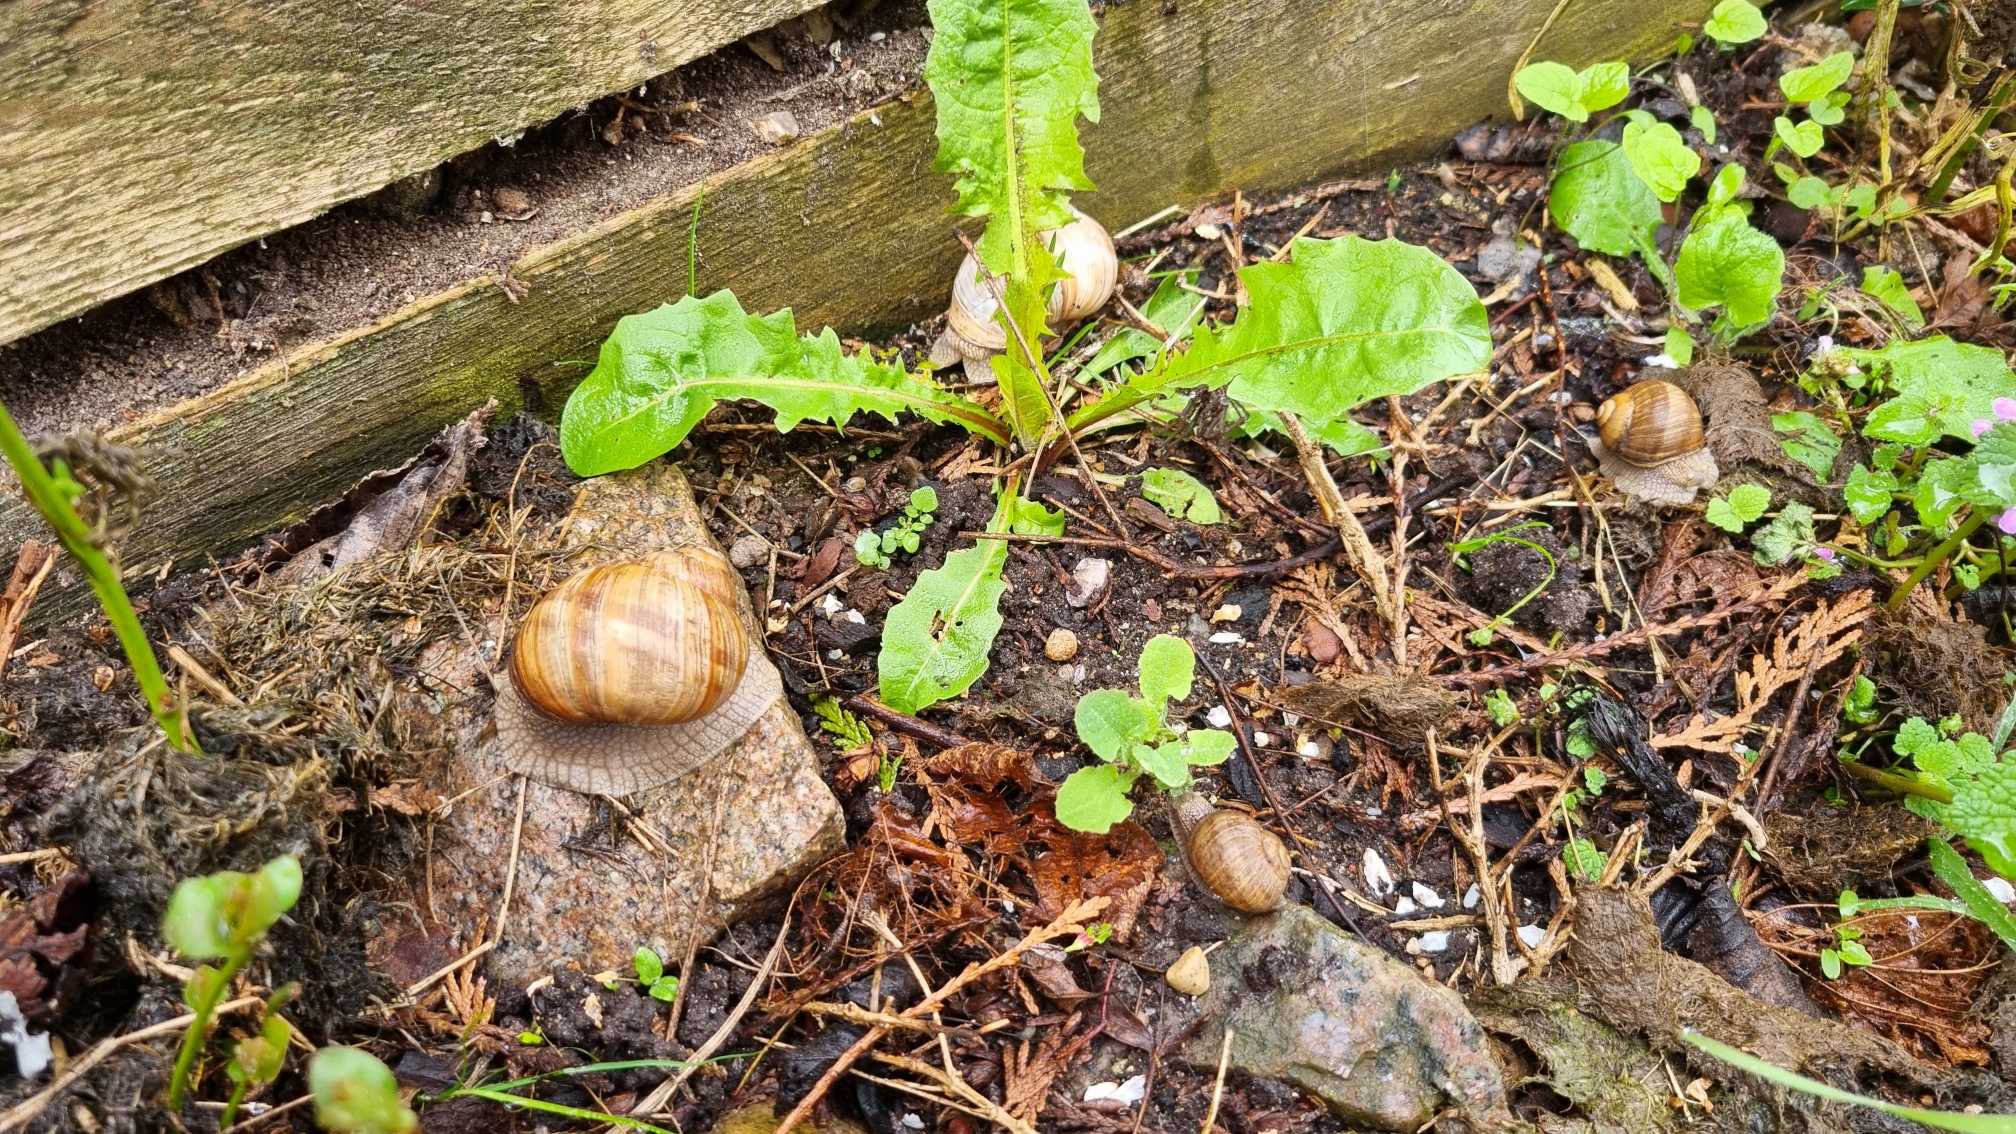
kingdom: Animalia
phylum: Mollusca
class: Gastropoda
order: Stylommatophora
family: Helicidae
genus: Helix
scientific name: Helix pomatia
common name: Vinbjergsnegl
